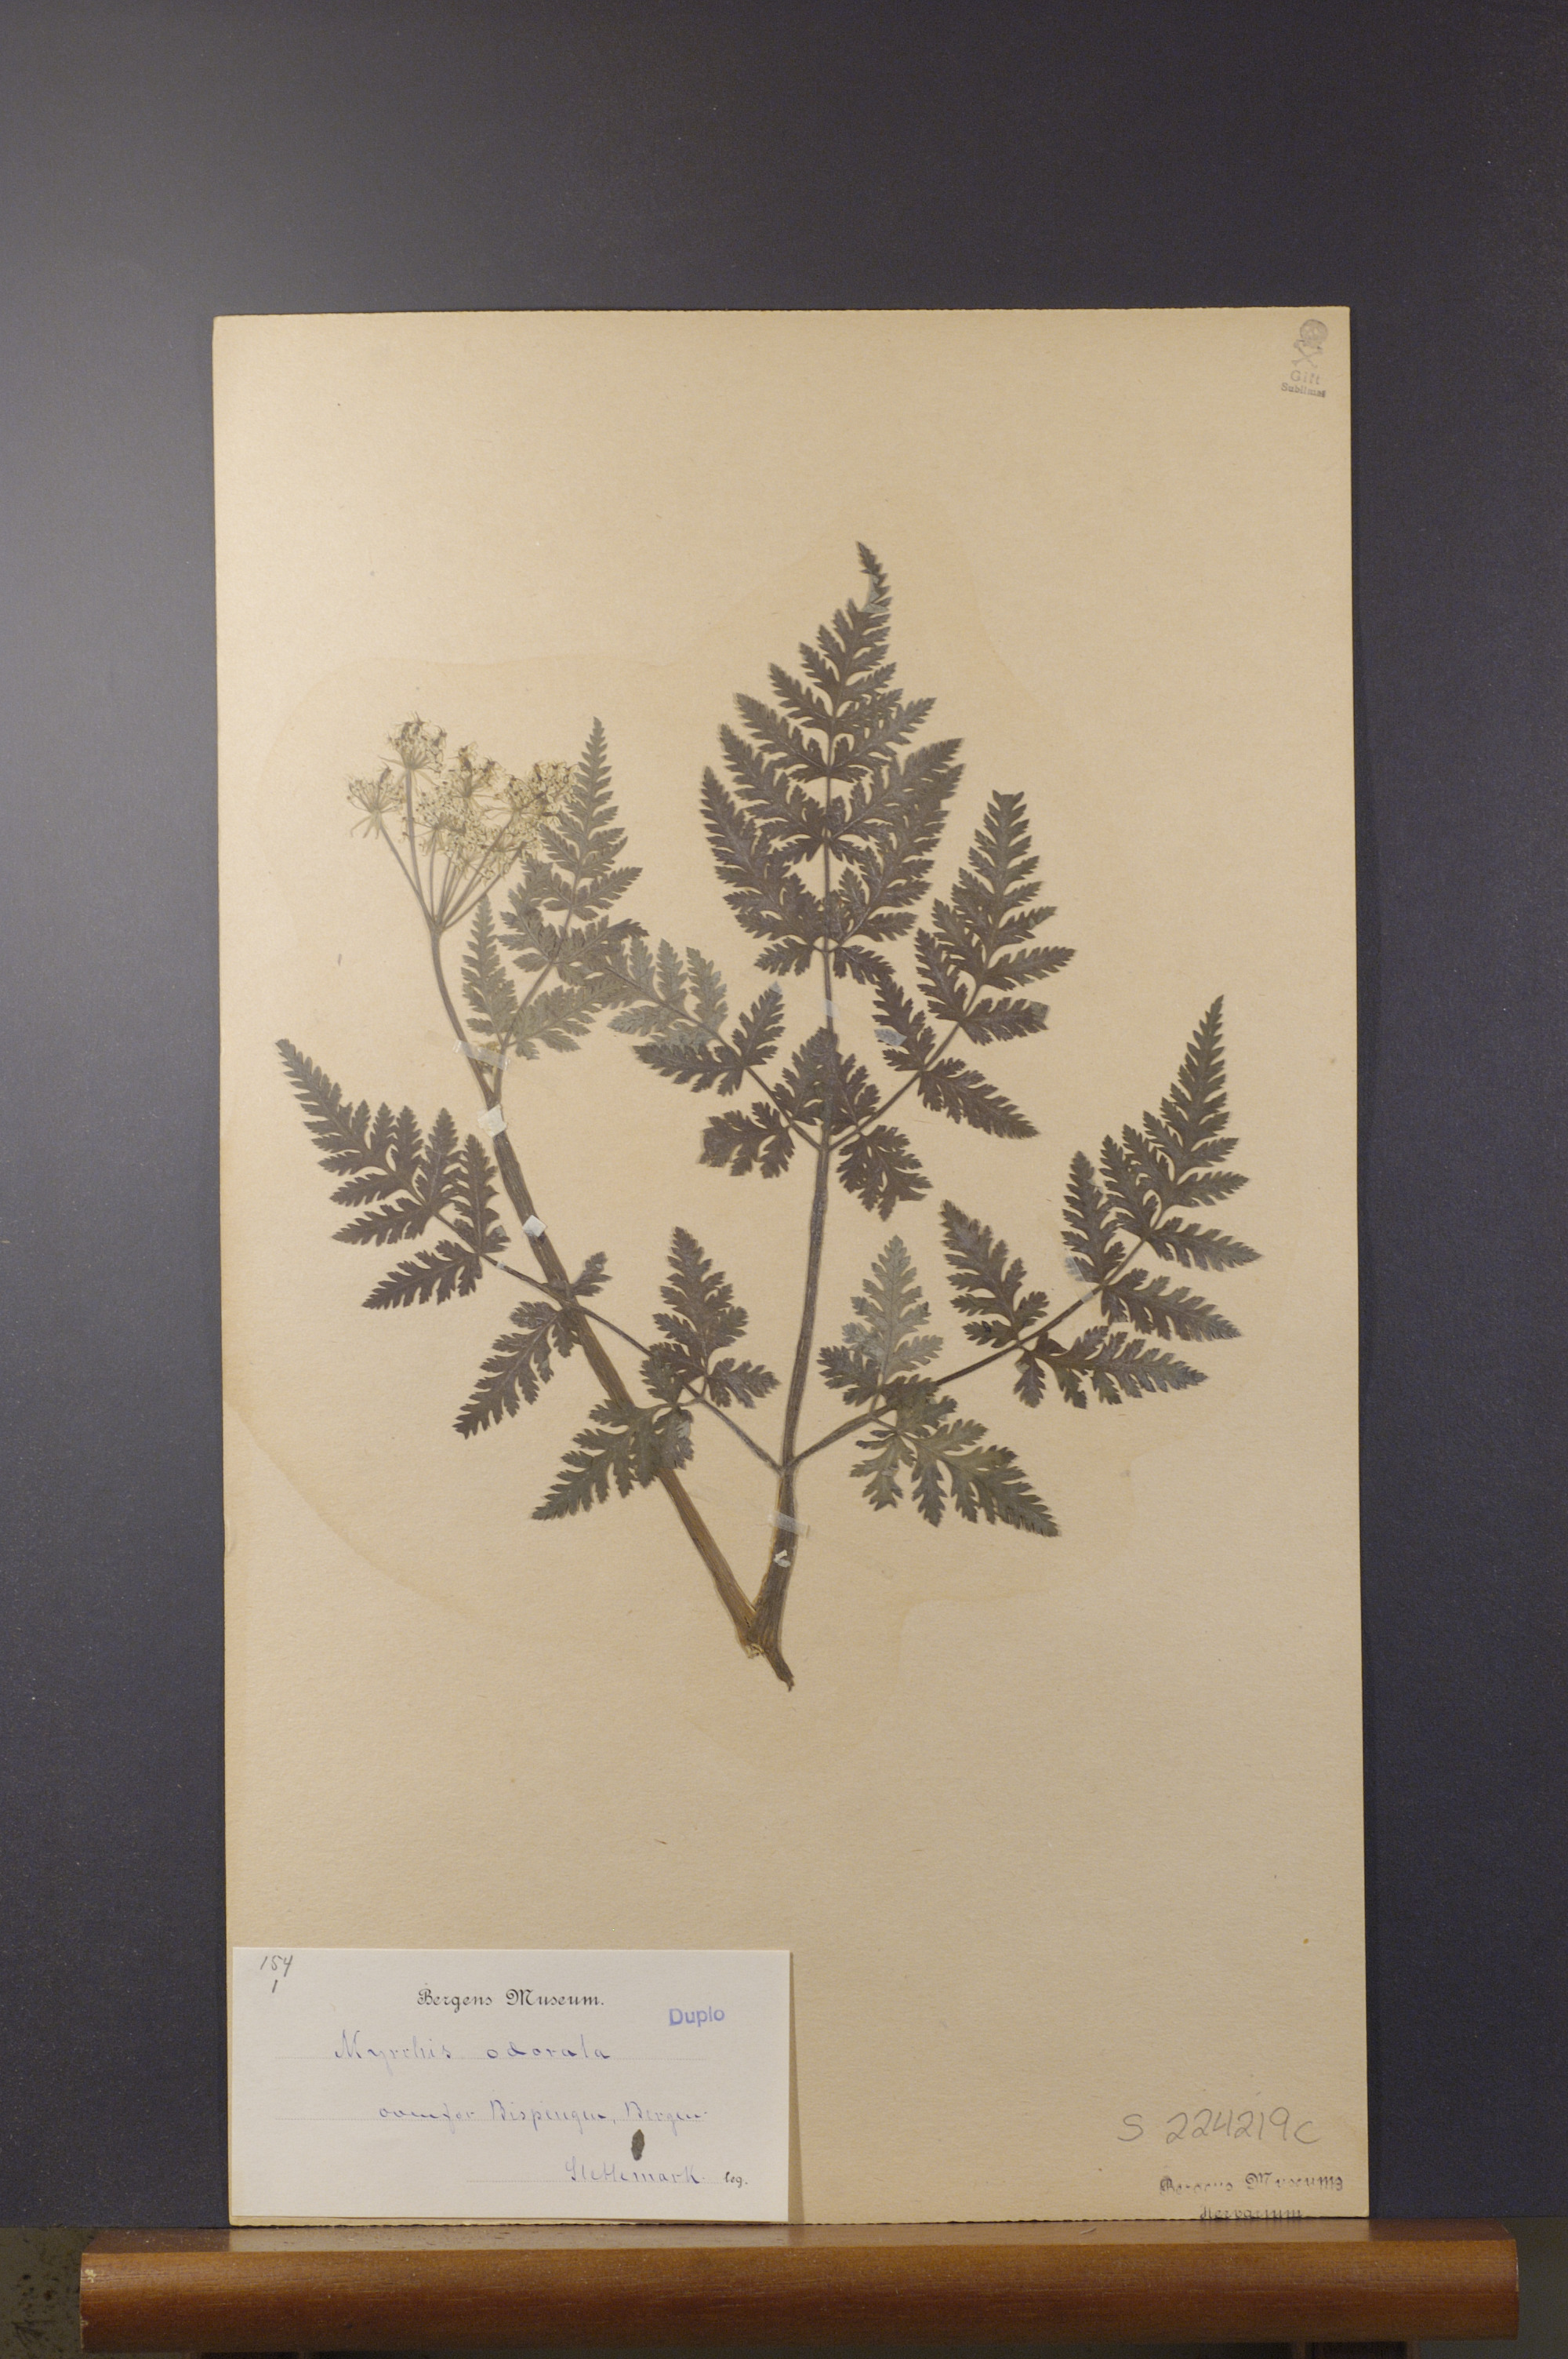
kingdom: Plantae
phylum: Tracheophyta
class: Magnoliopsida
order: Apiales
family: Apiaceae
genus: Myrrhis
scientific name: Myrrhis odorata
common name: Sweet cicely
